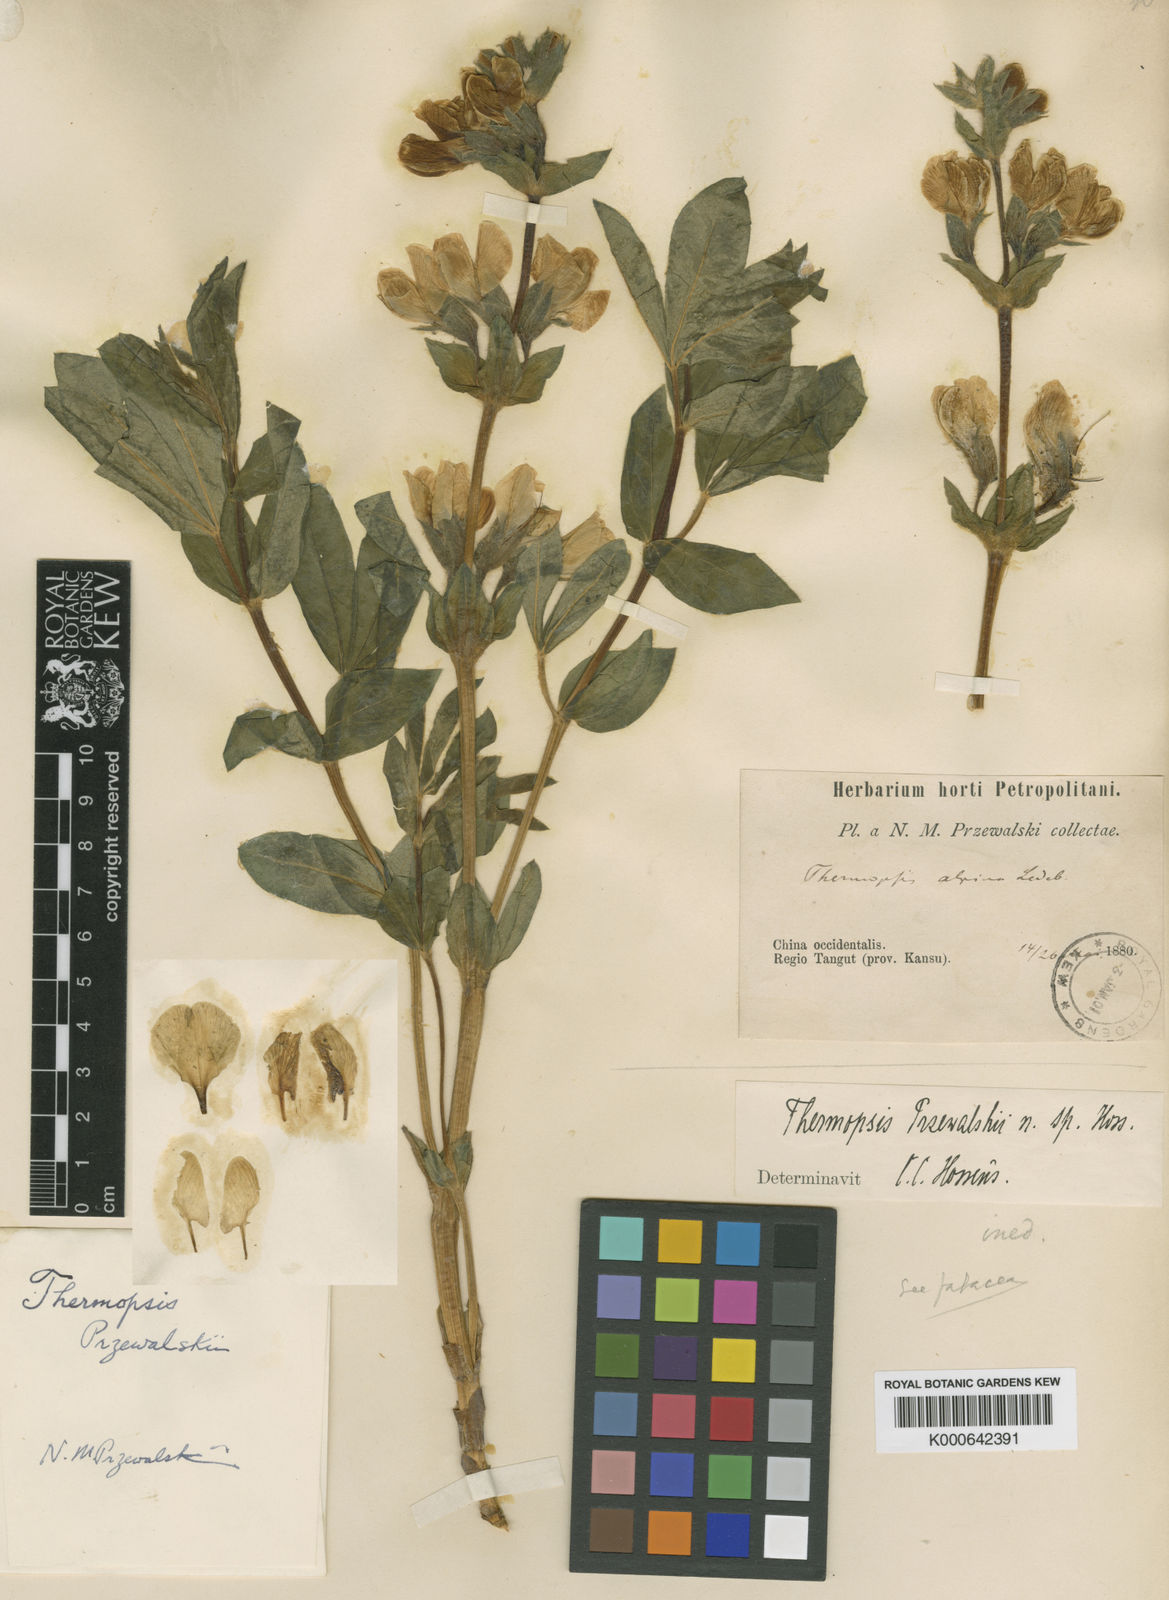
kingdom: Plantae
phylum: Tracheophyta
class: Magnoliopsida
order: Fabales
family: Fabaceae
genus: Thermopsis
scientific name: Thermopsis przewalskii
